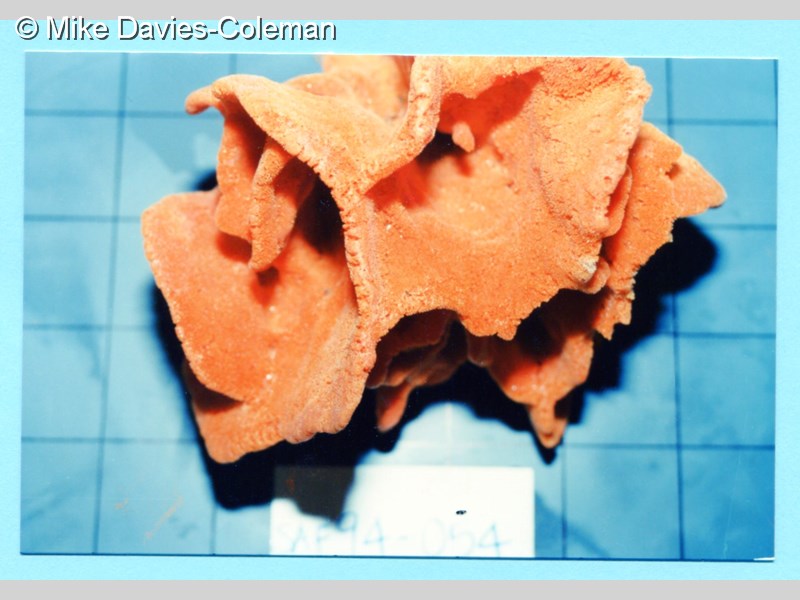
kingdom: Animalia
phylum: Porifera
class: Demospongiae
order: Poecilosclerida
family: Isodictyidae
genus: Isodictya
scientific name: Isodictya grandis
